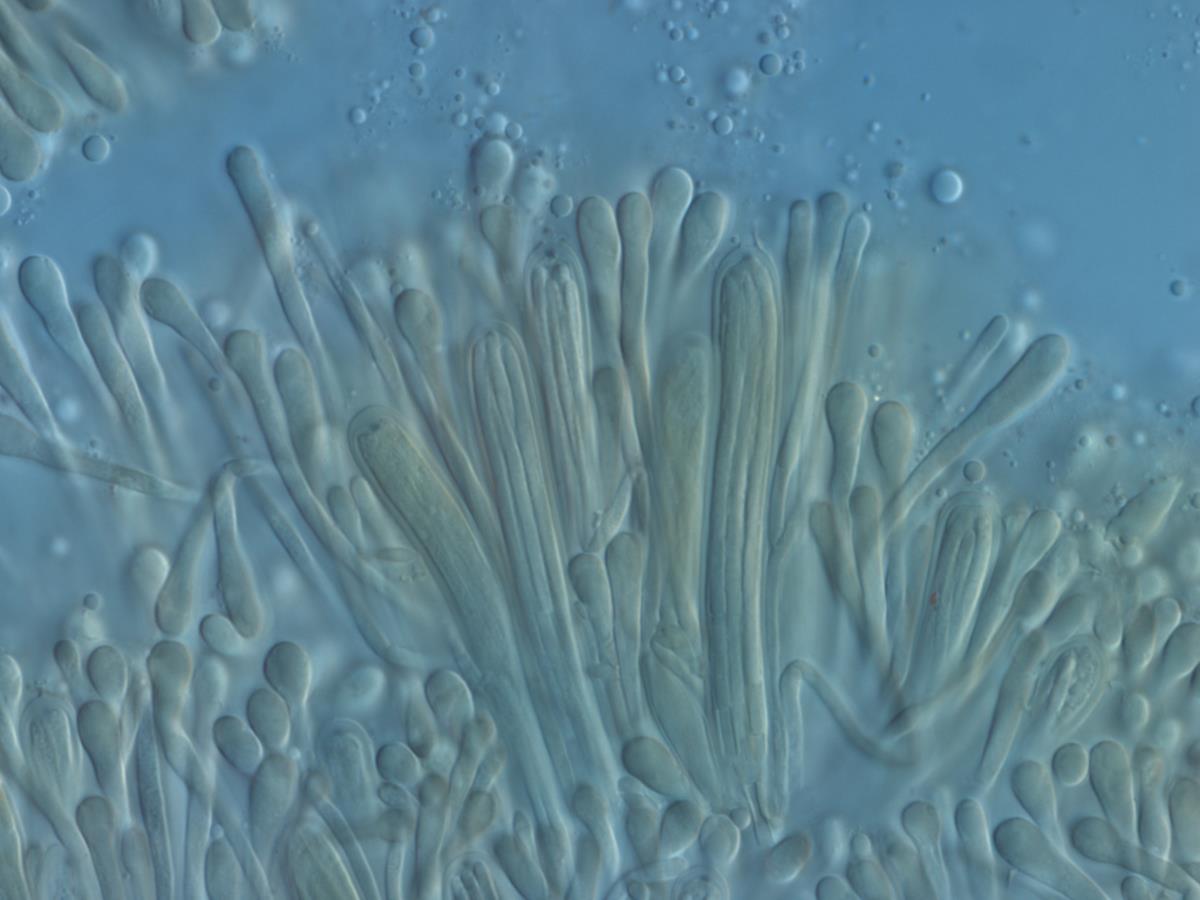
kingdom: Fungi
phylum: Ascomycota
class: Leotiomycetes
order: Helotiales
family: Vibrisseaceae
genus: Chlorovibrissea
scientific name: Chlorovibrissea albofusca
